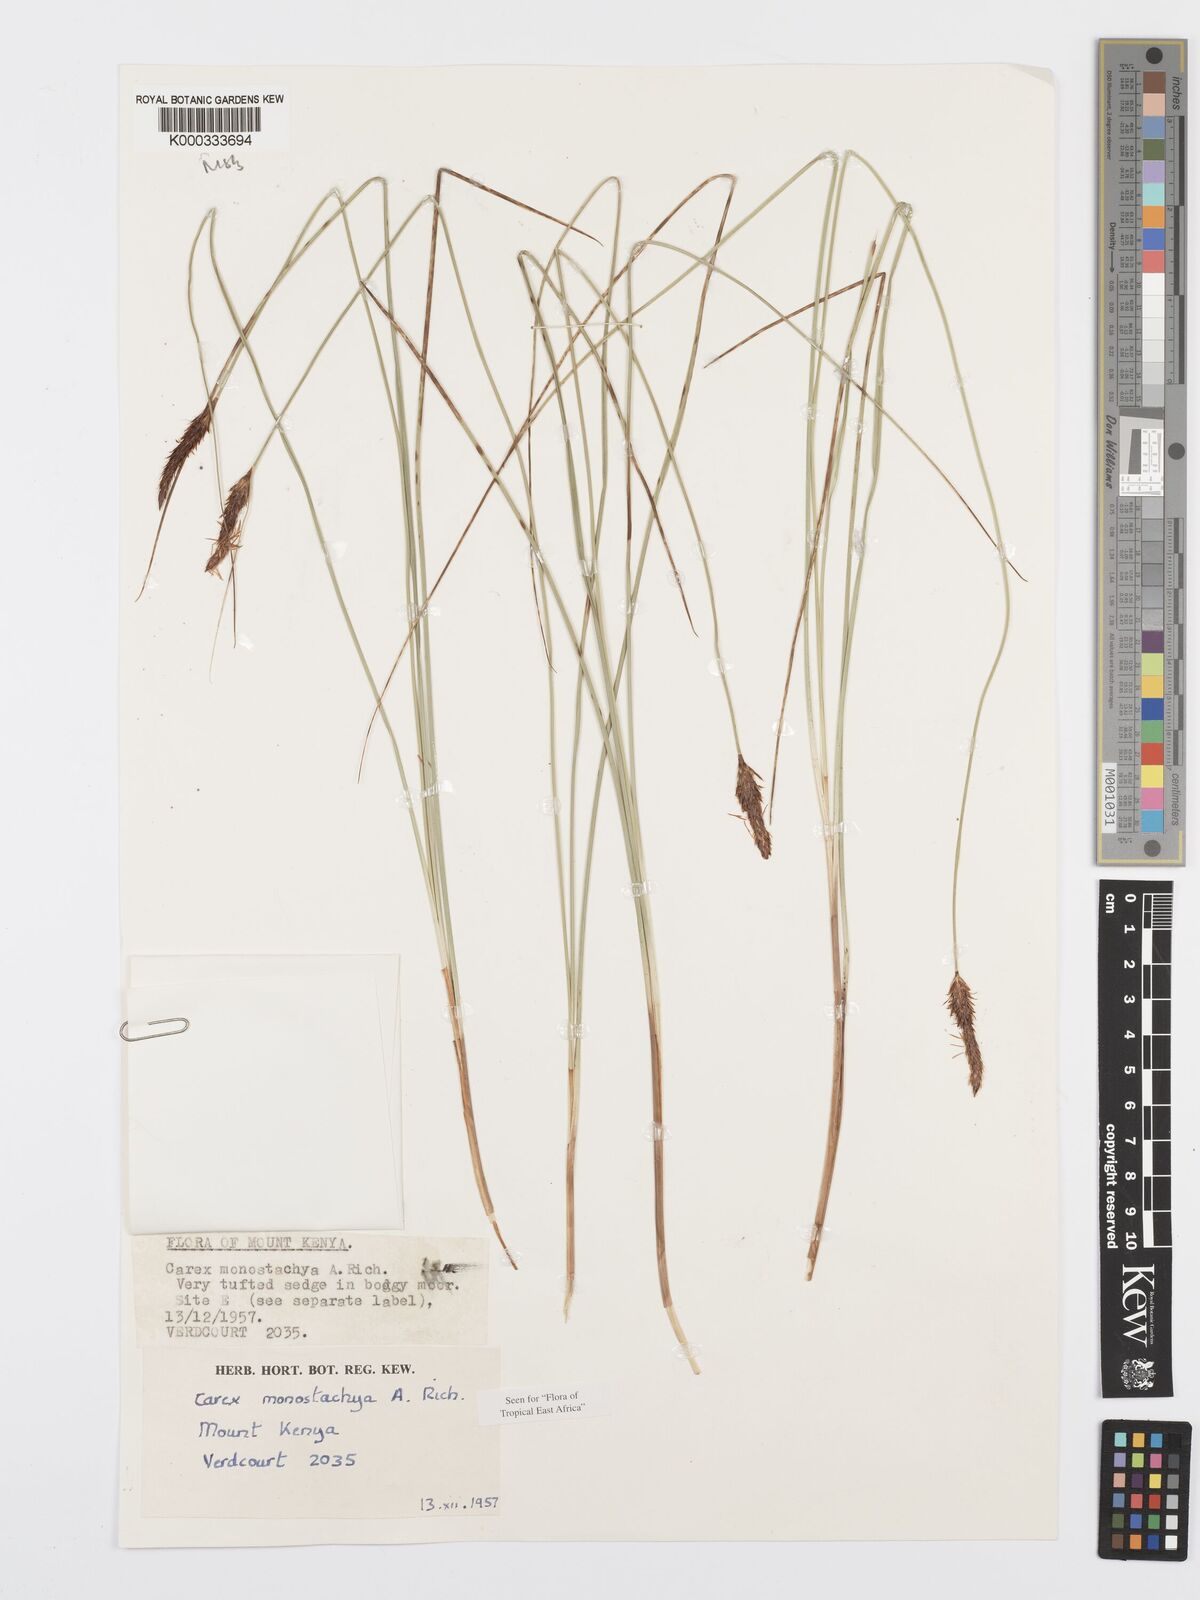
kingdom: Plantae
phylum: Tracheophyta
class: Liliopsida
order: Poales
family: Cyperaceae
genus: Carex
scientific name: Carex monostachya
